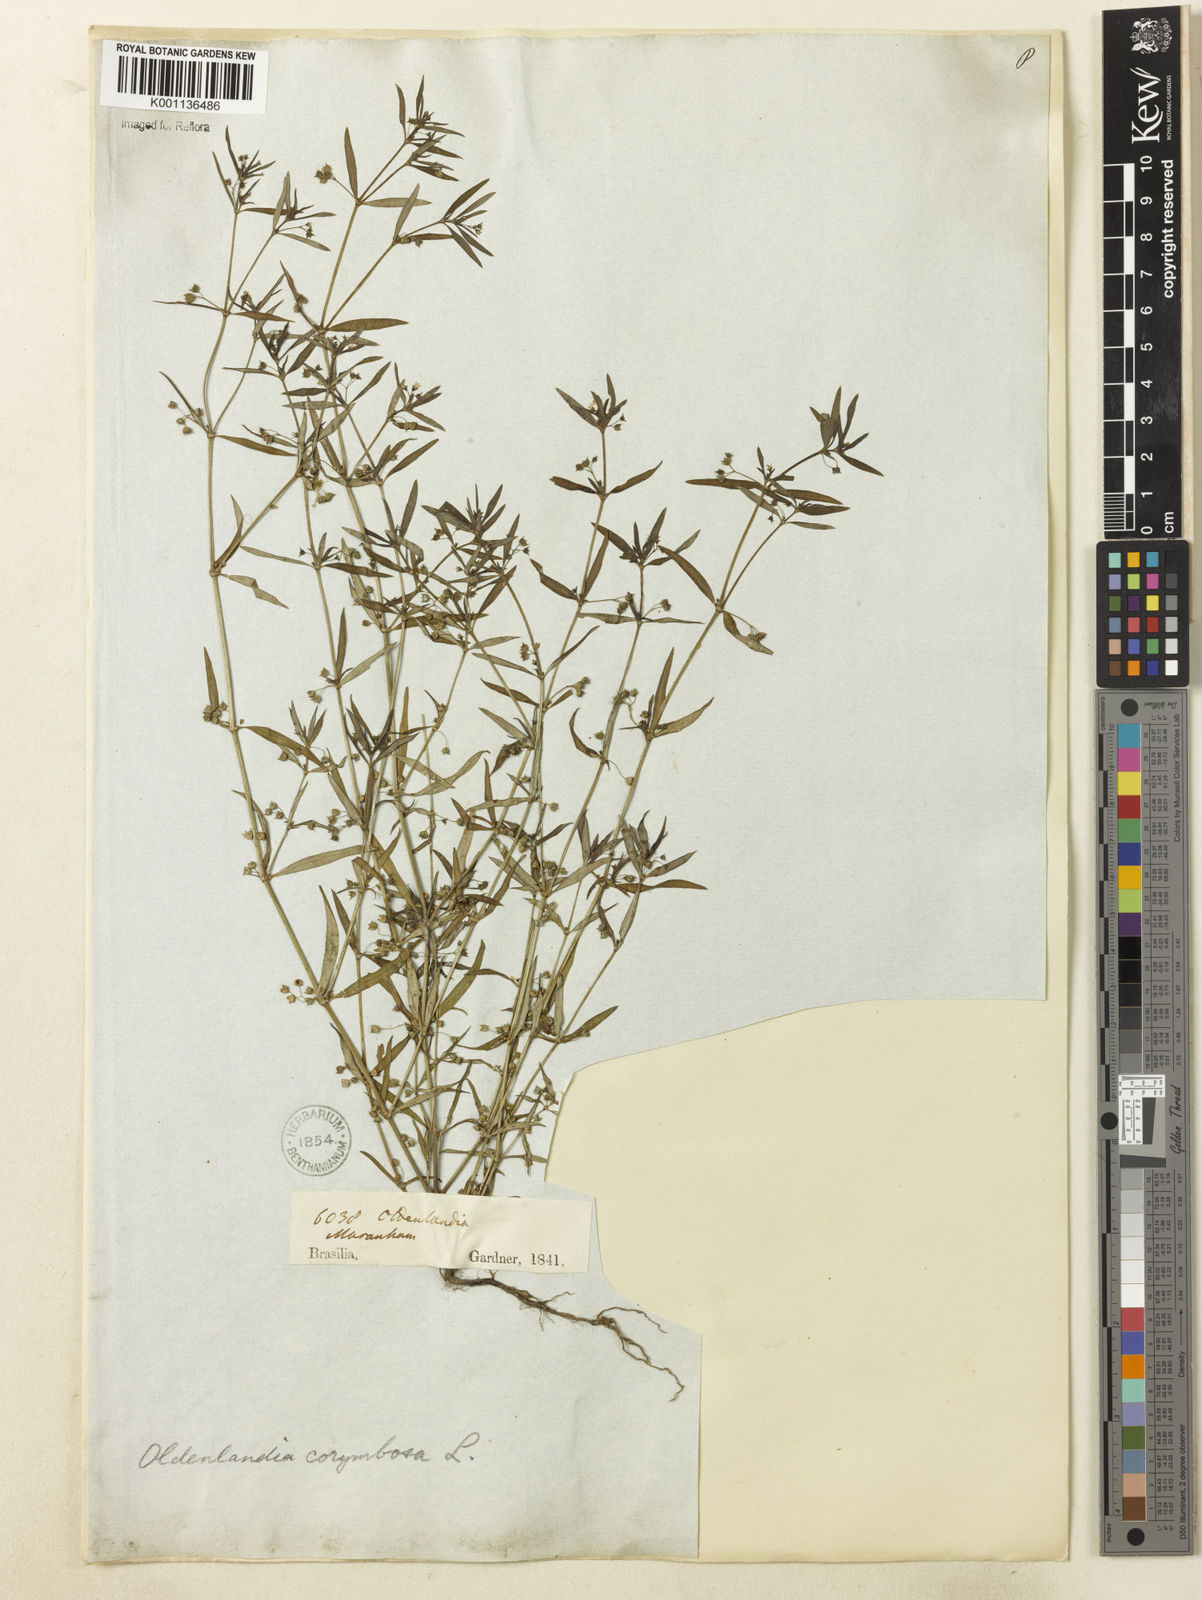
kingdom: Plantae
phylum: Tracheophyta
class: Magnoliopsida
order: Gentianales
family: Rubiaceae
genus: Oldenlandia
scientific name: Oldenlandia corymbosa
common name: Flat-top mille graines
